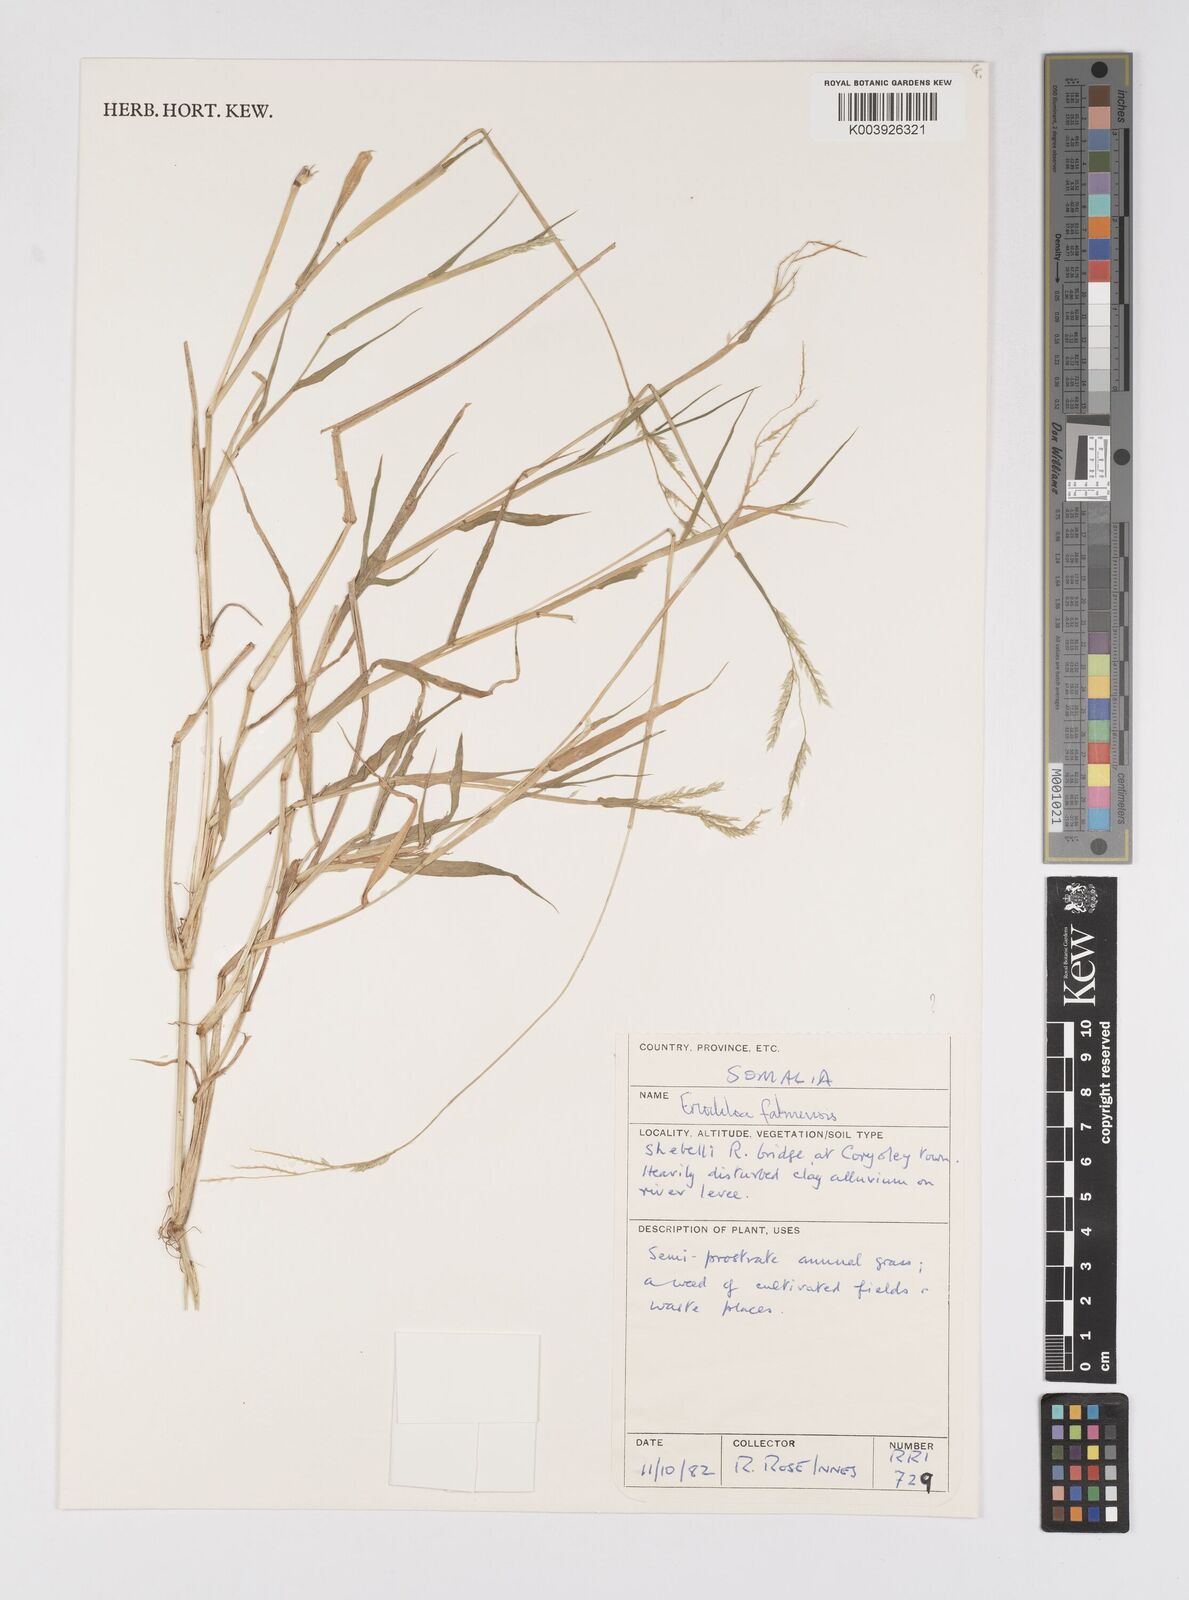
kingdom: Plantae
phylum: Tracheophyta
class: Liliopsida
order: Poales
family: Poaceae
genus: Eriochloa
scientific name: Eriochloa barbatus
